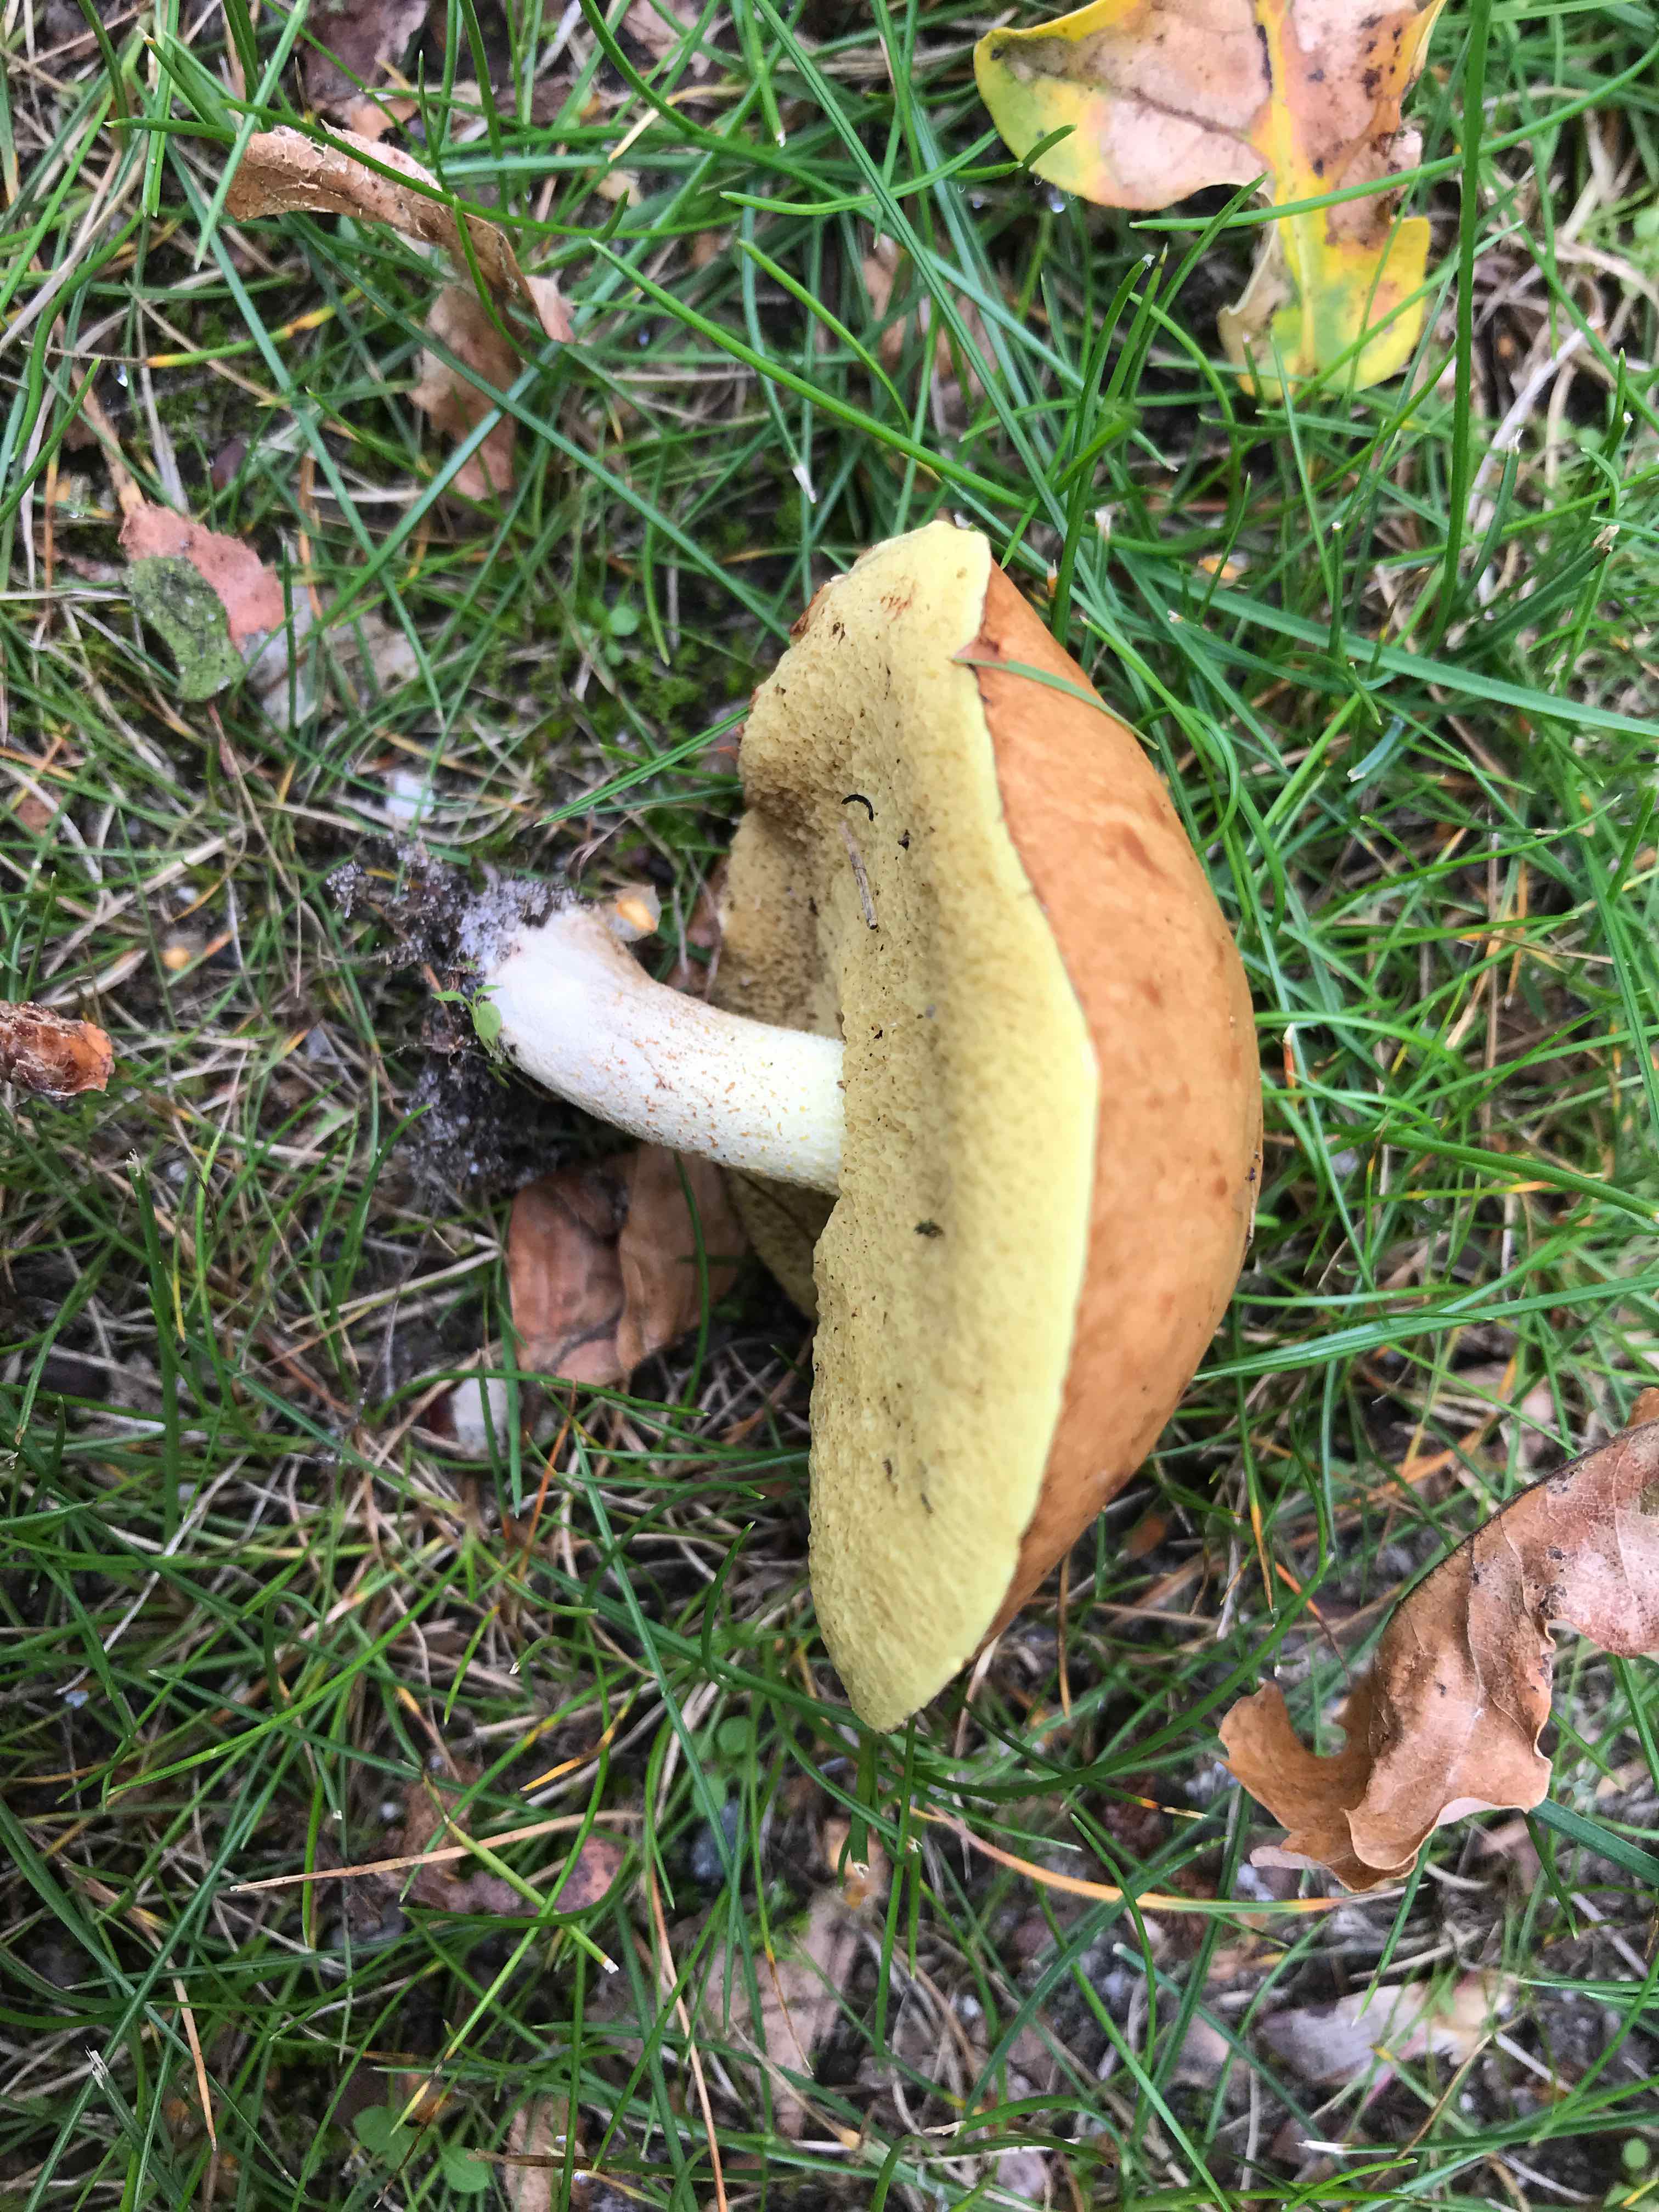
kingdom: Fungi
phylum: Basidiomycota
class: Agaricomycetes
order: Boletales
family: Suillaceae
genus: Suillus
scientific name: Suillus granulatus
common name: kornet slimrørhat
